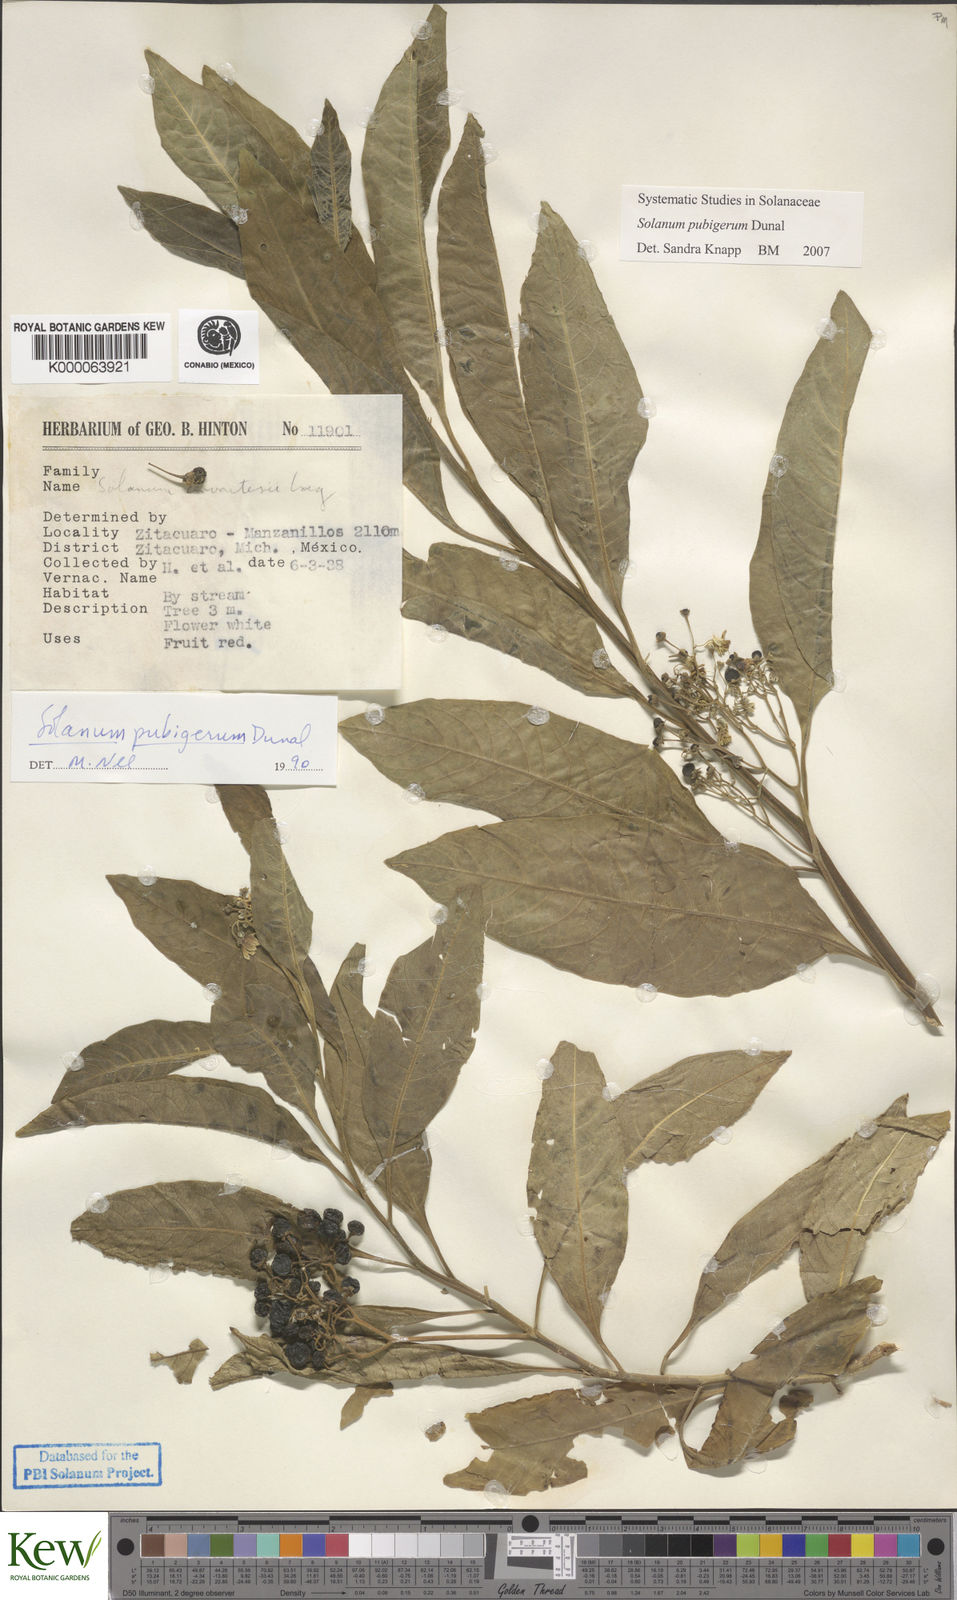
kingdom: Plantae
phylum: Tracheophyta
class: Magnoliopsida
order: Solanales
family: Solanaceae
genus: Solanum
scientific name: Solanum pubigerum
